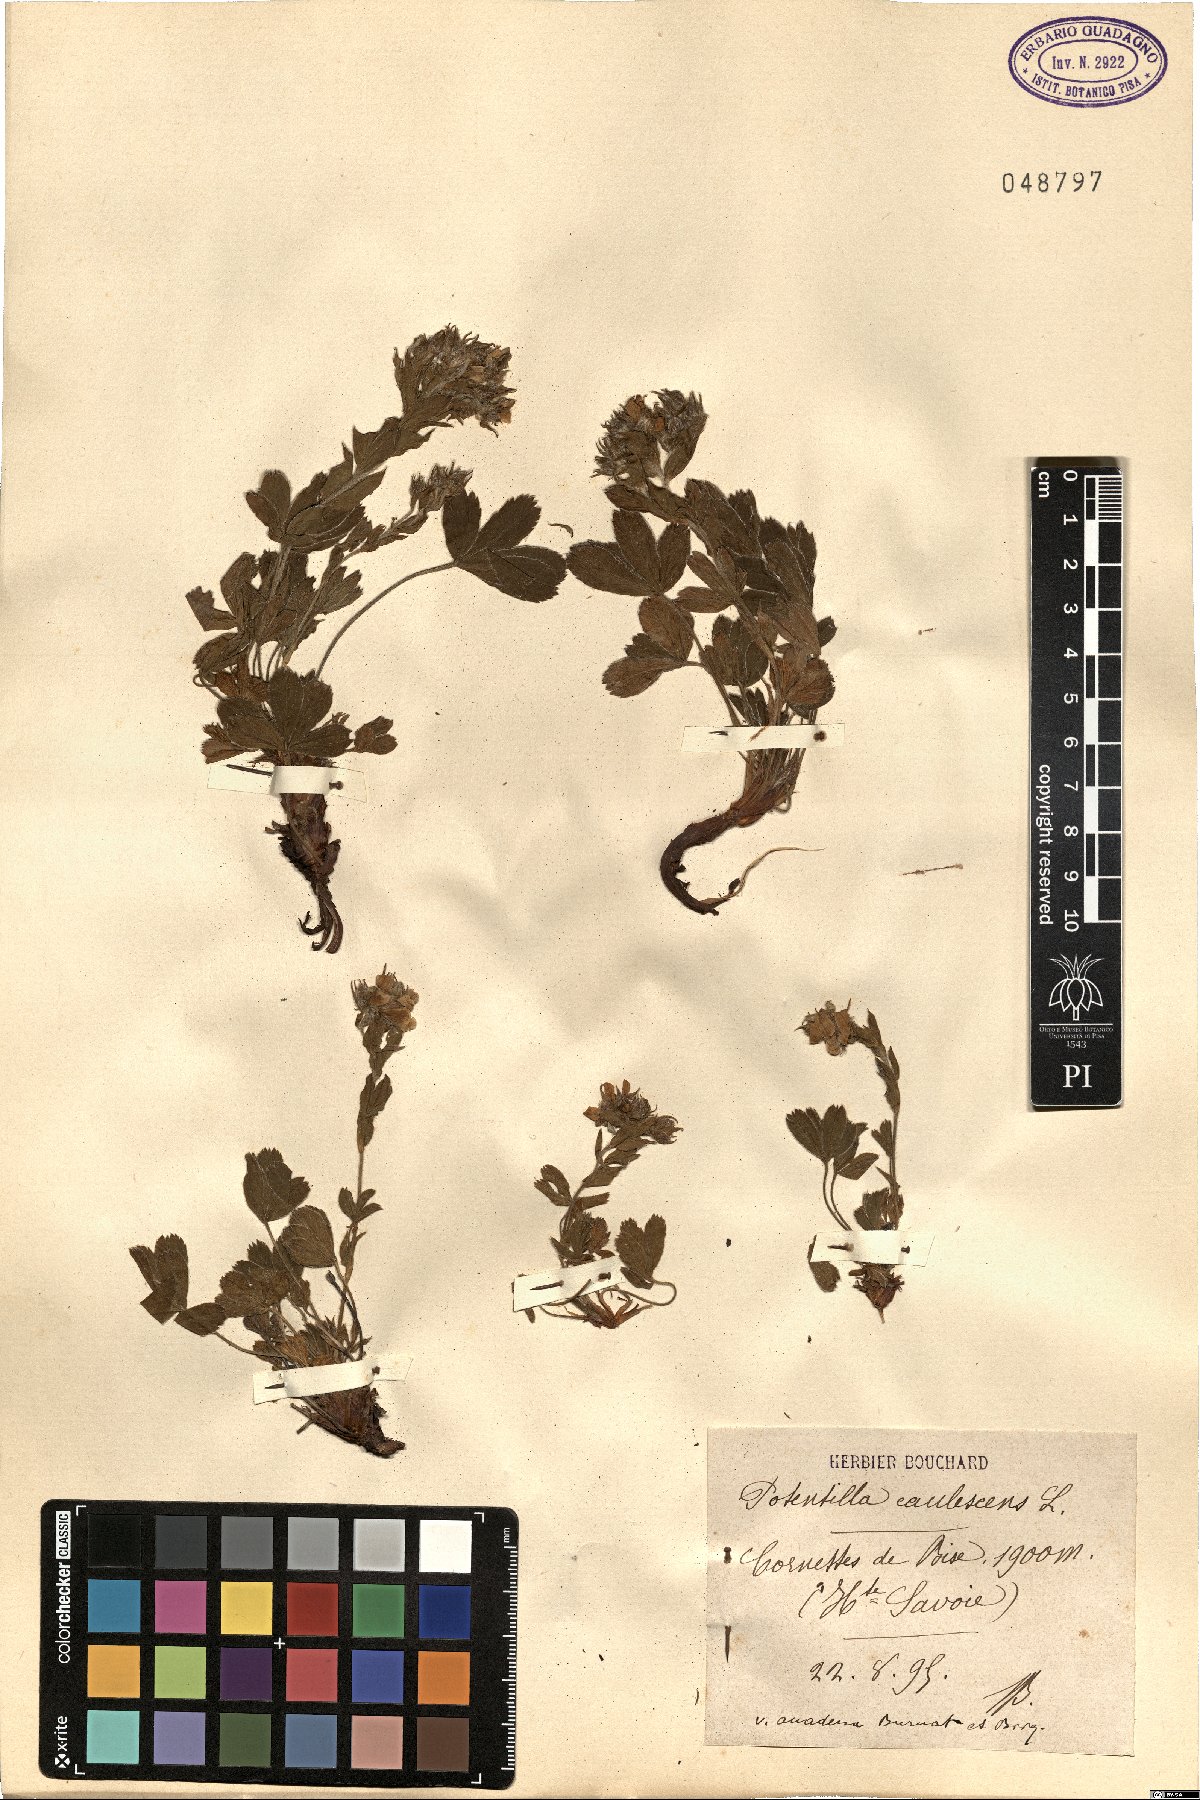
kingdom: Plantae
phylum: Tracheophyta
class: Magnoliopsida
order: Rosales
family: Rosaceae
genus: Potentilla
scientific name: Potentilla caulescens
